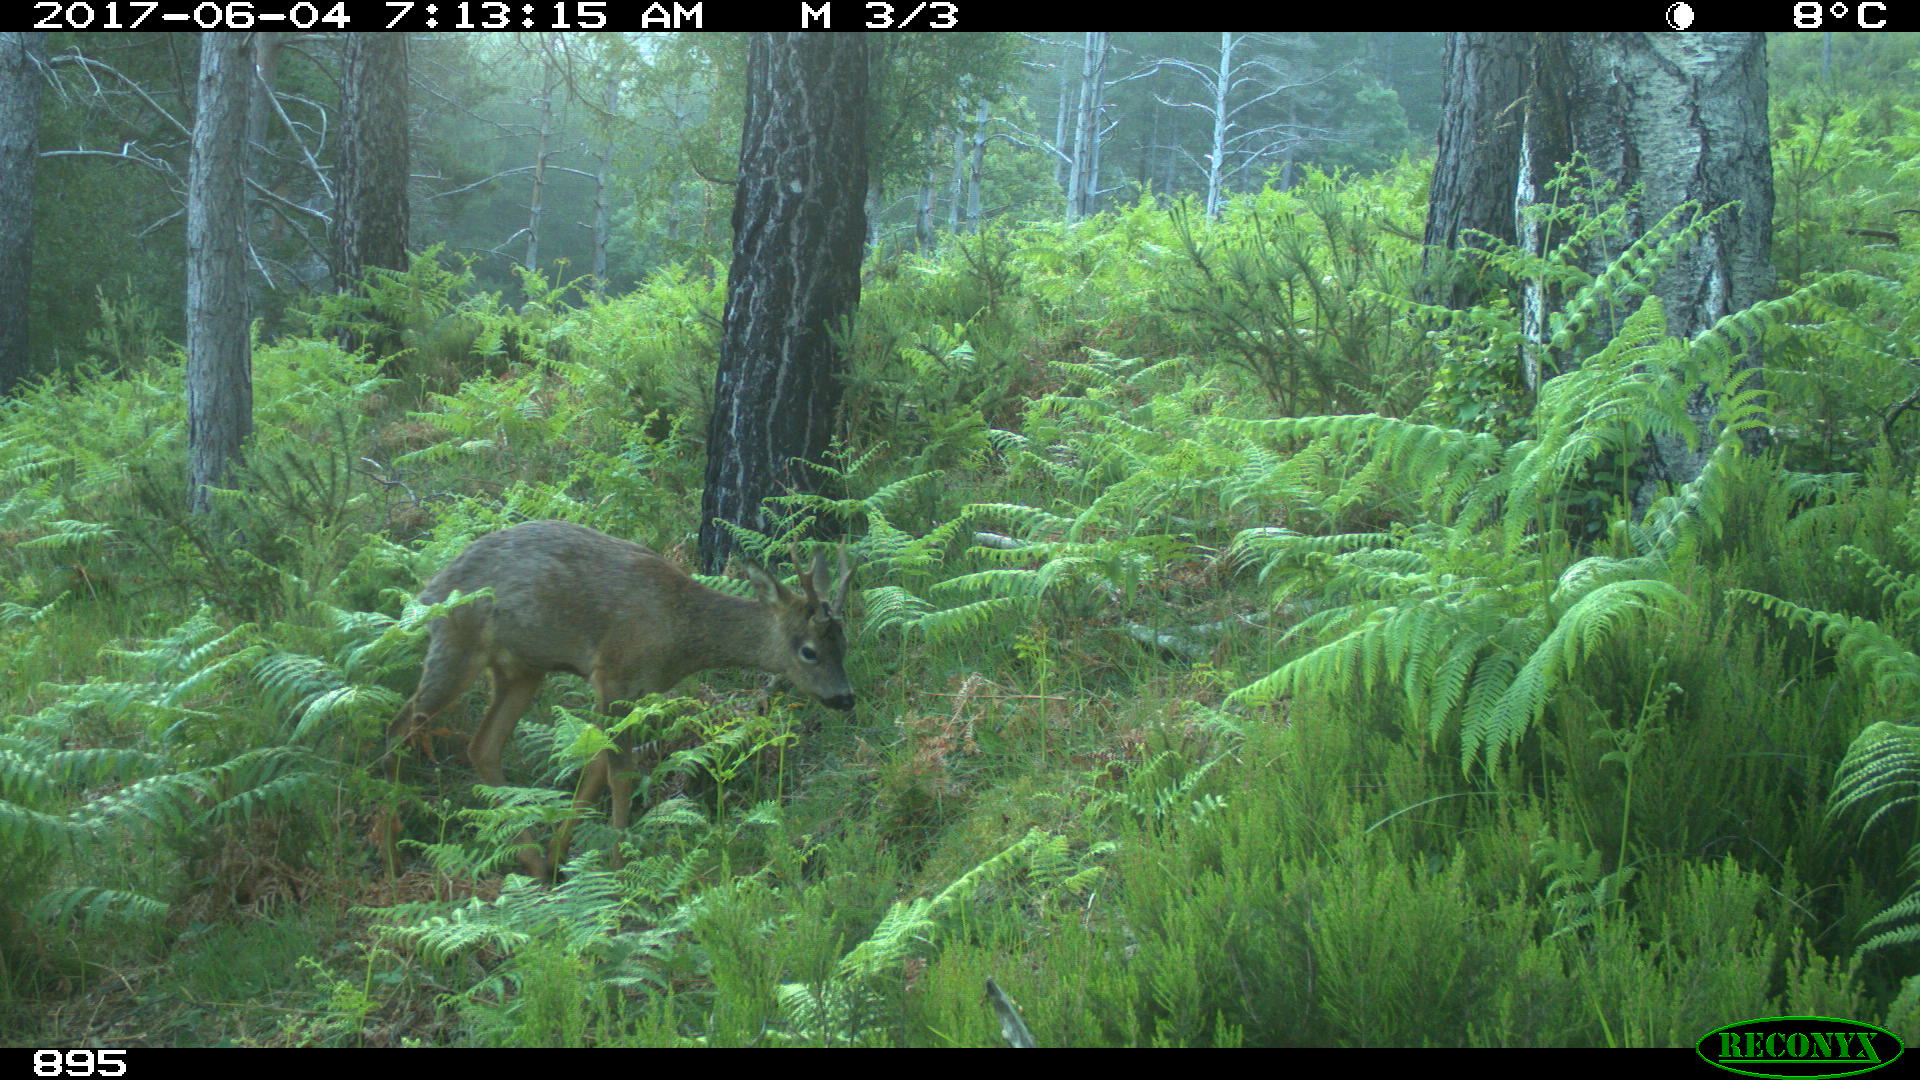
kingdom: Animalia
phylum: Chordata
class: Mammalia
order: Artiodactyla
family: Cervidae
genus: Capreolus
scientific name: Capreolus capreolus
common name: Western roe deer
